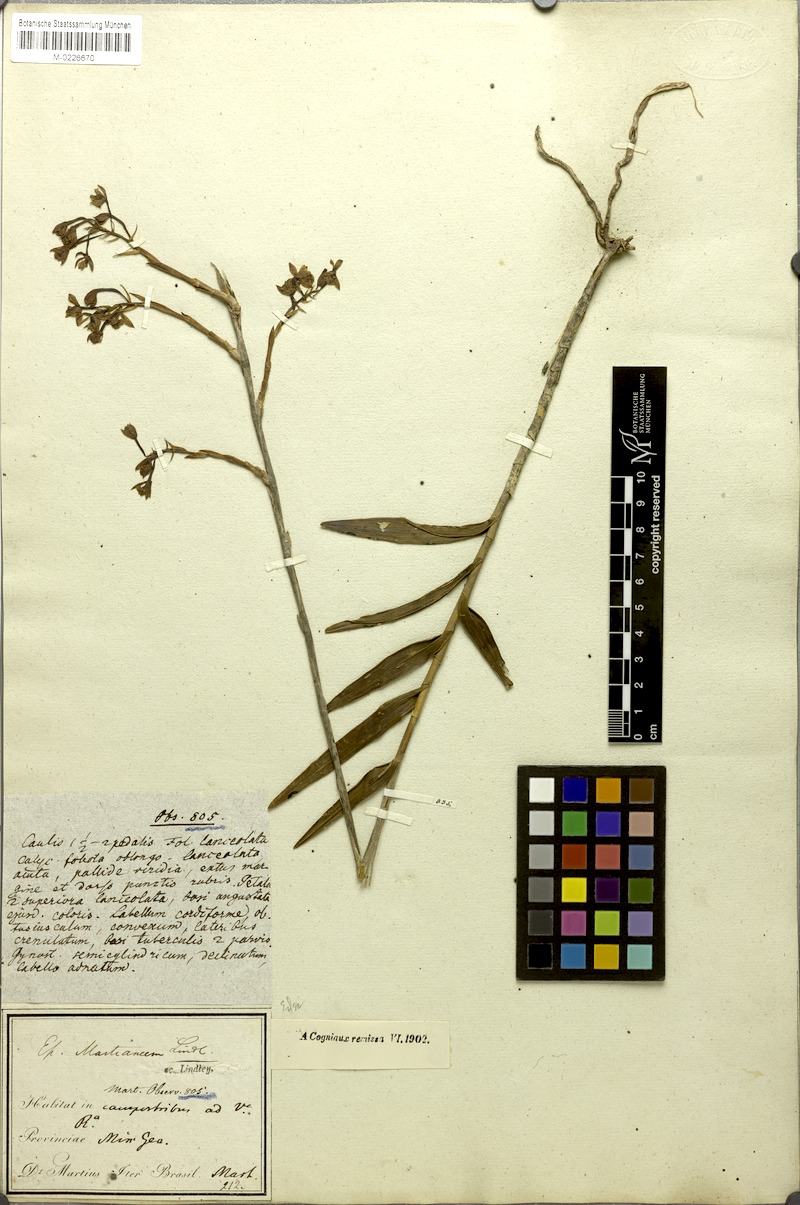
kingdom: Plantae
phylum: Tracheophyta
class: Liliopsida
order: Asparagales
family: Orchidaceae
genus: Epidendrum
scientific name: Epidendrum martianum
